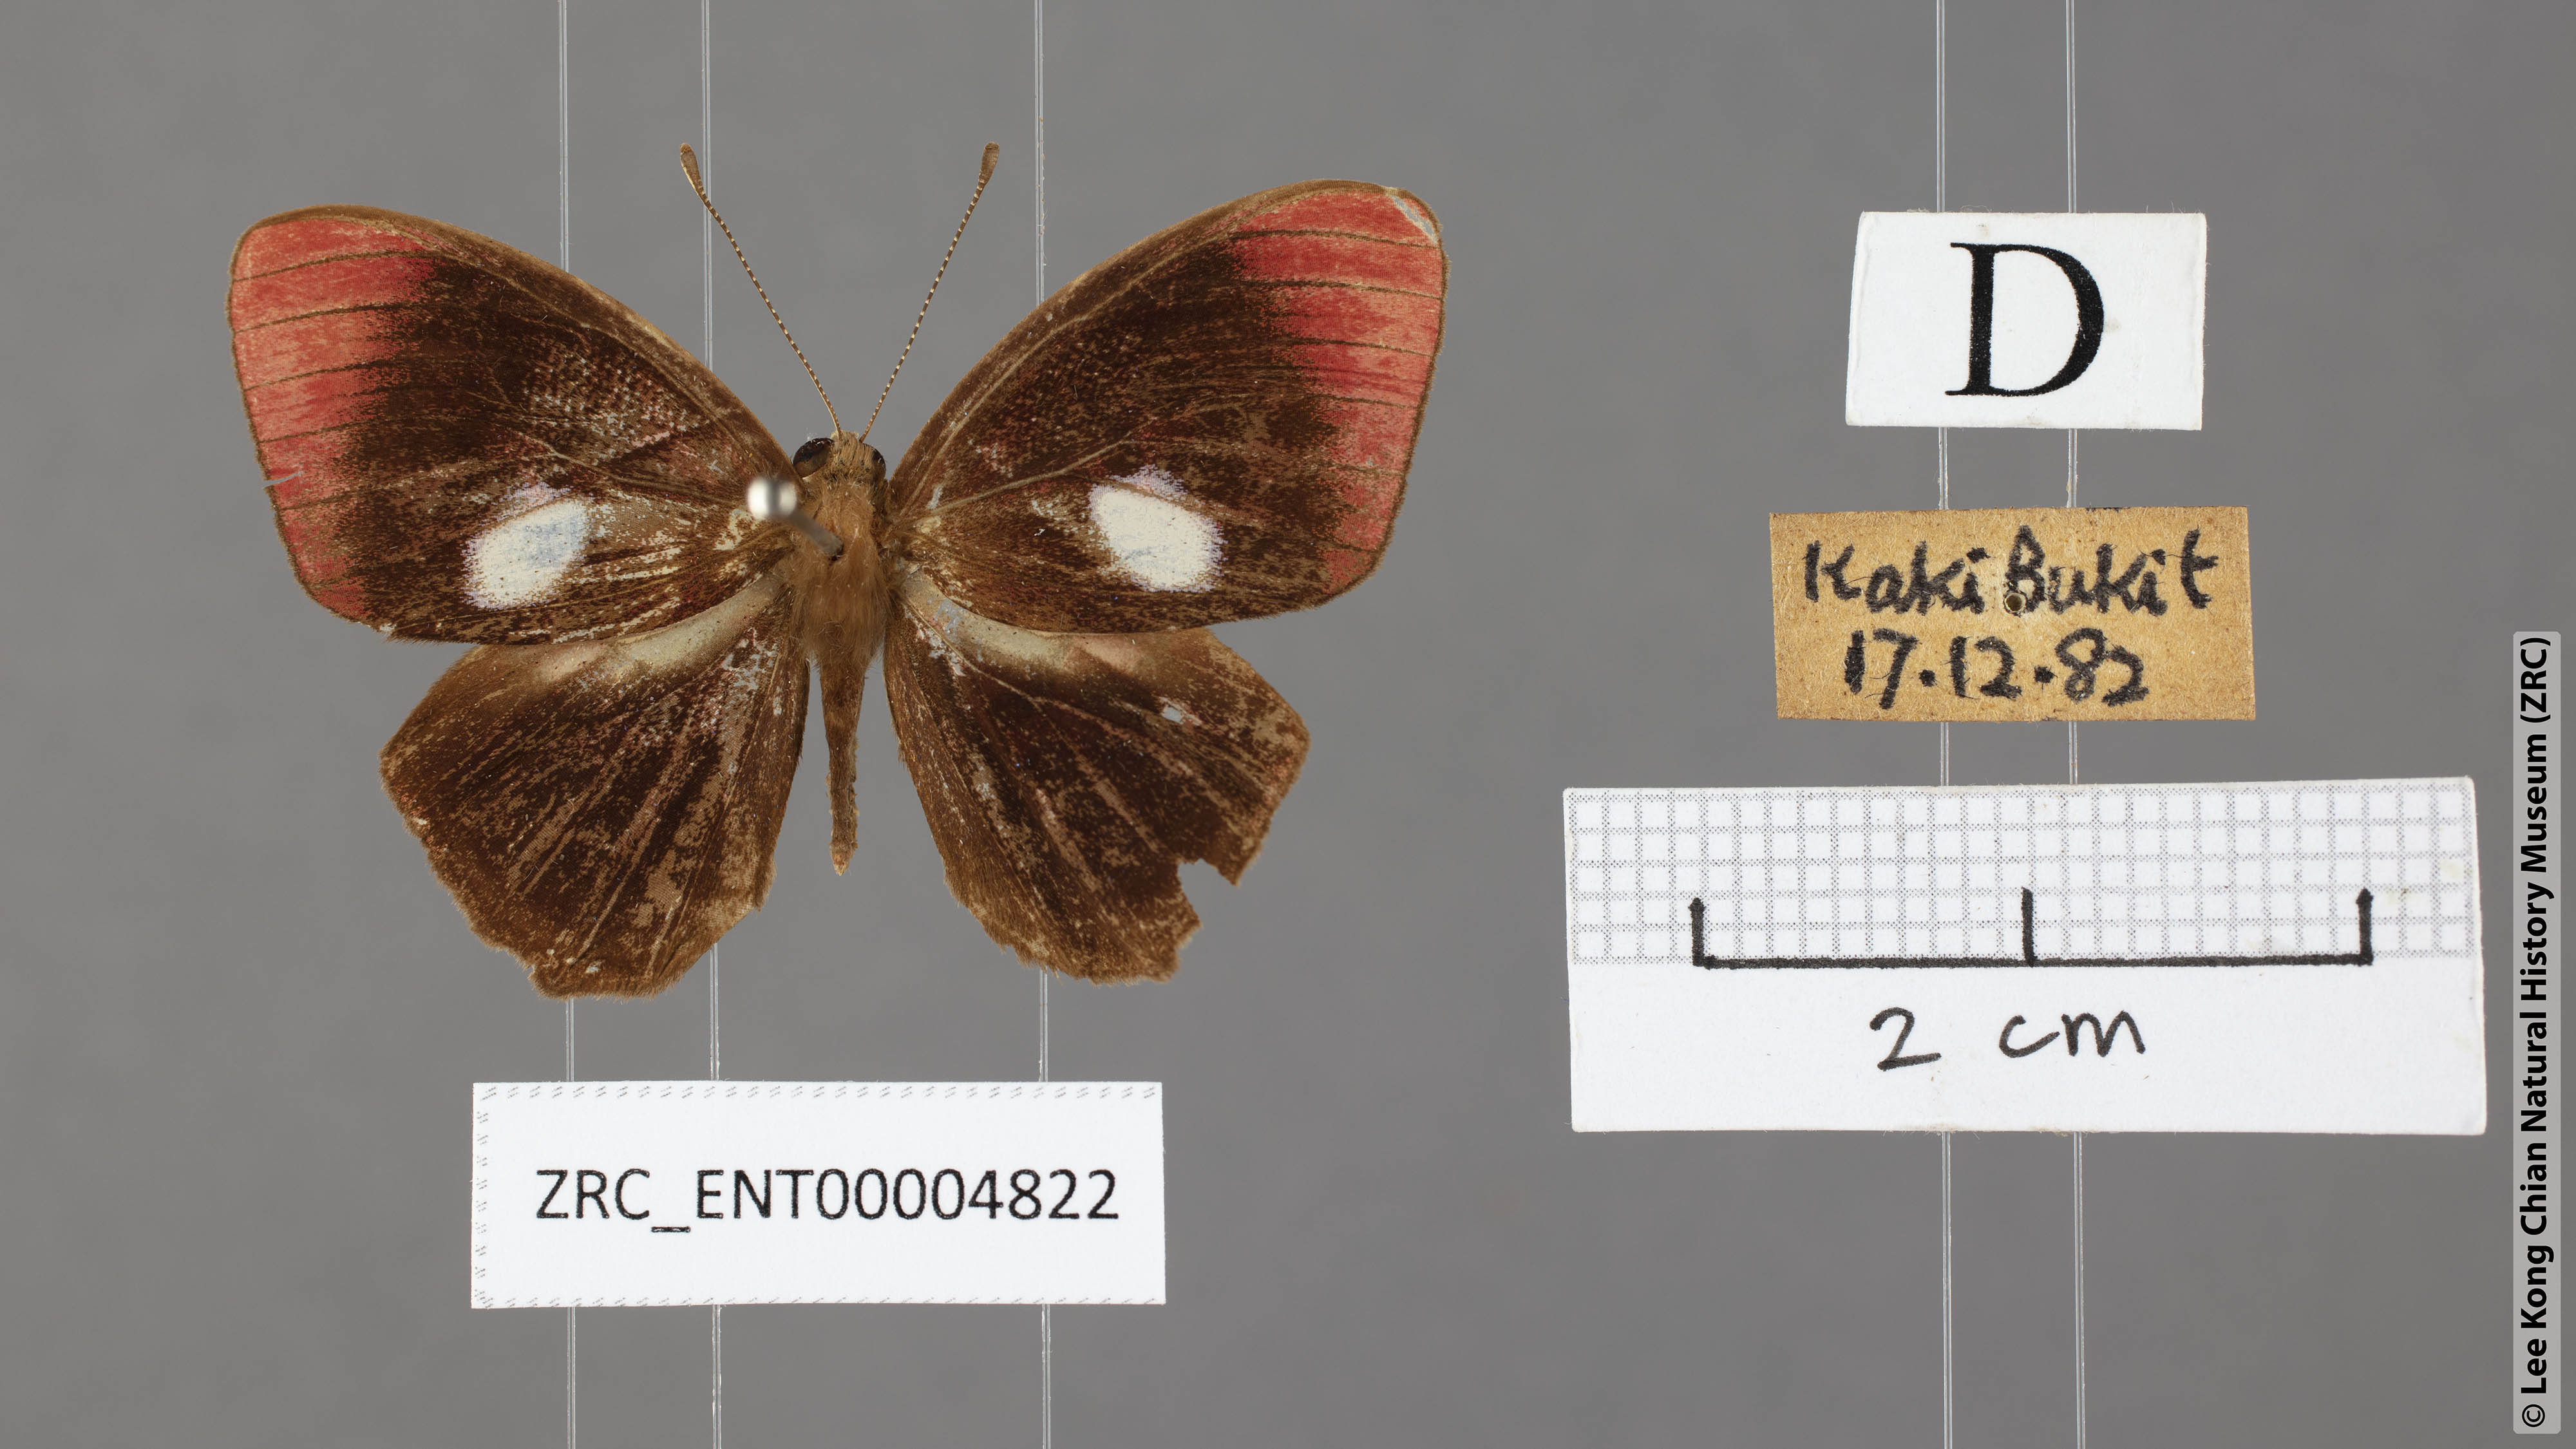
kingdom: Animalia
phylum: Arthropoda
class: Insecta
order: Lepidoptera
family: Lycaenidae
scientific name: Lycaenidae
